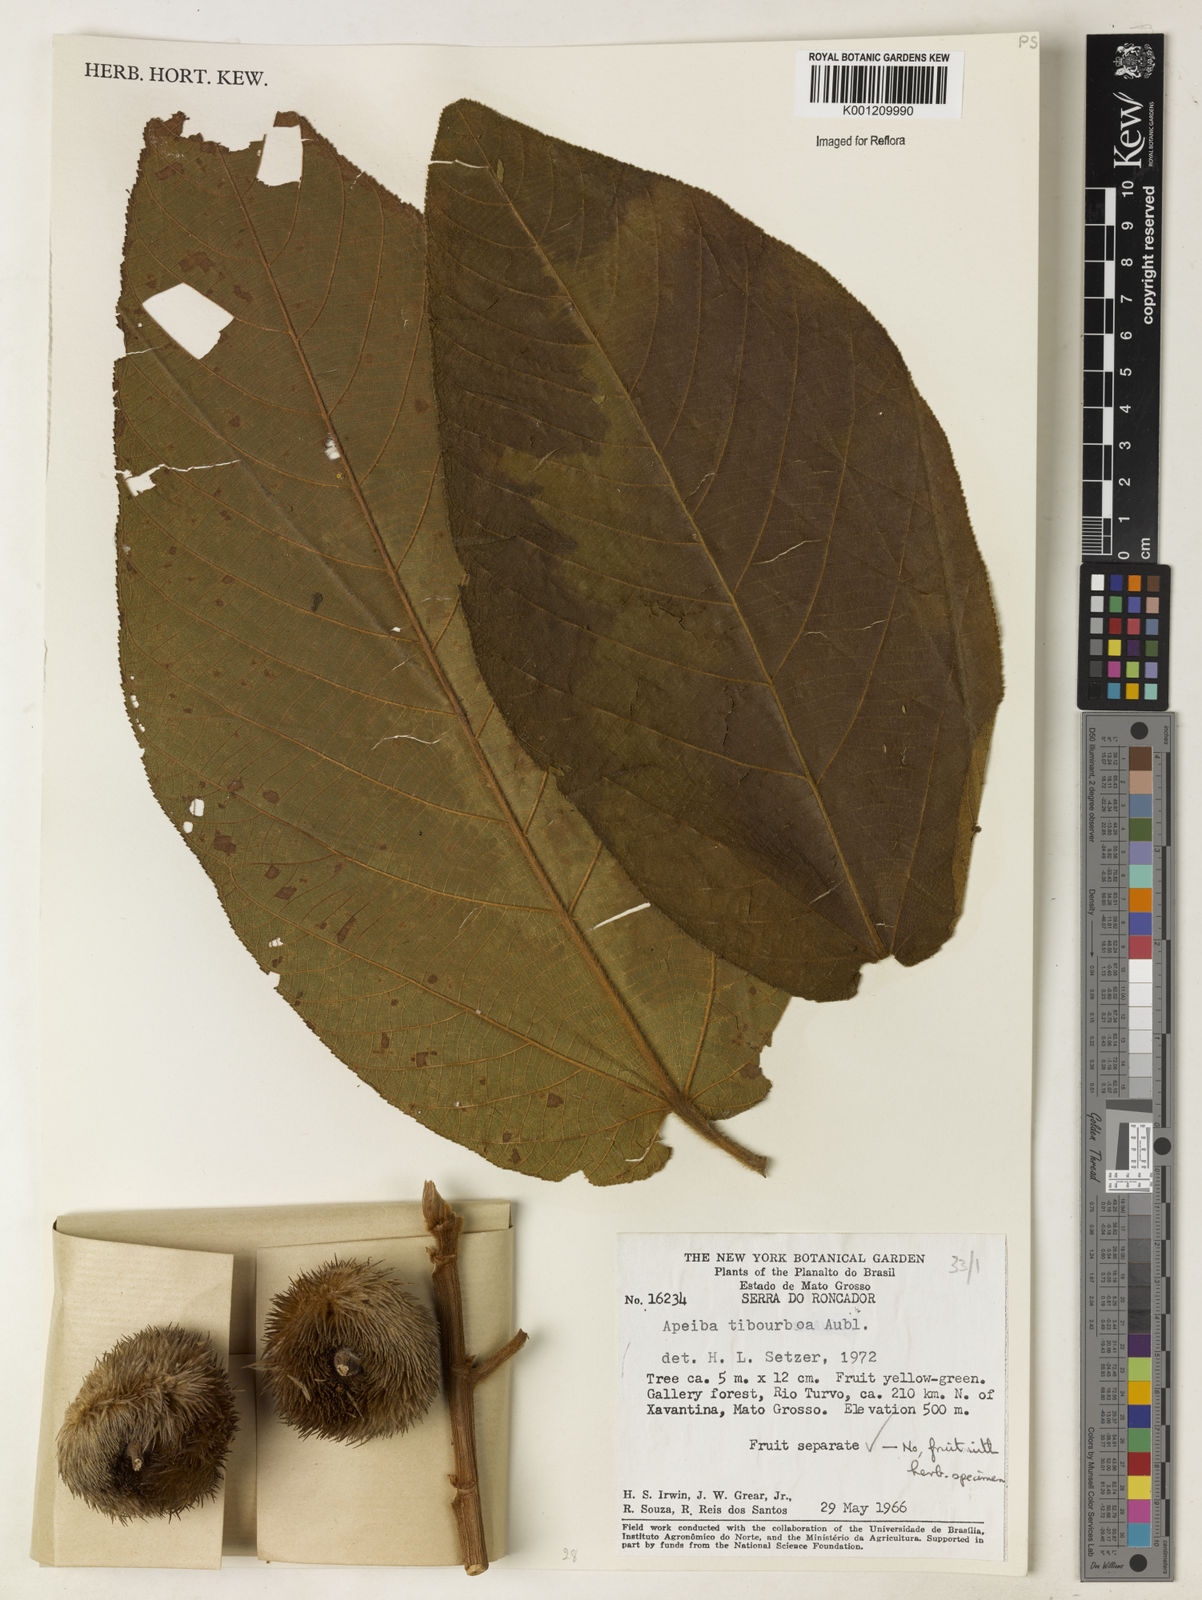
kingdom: Plantae
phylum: Tracheophyta
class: Magnoliopsida
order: Malvales
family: Malvaceae
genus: Apeiba
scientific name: Apeiba tibourbou
